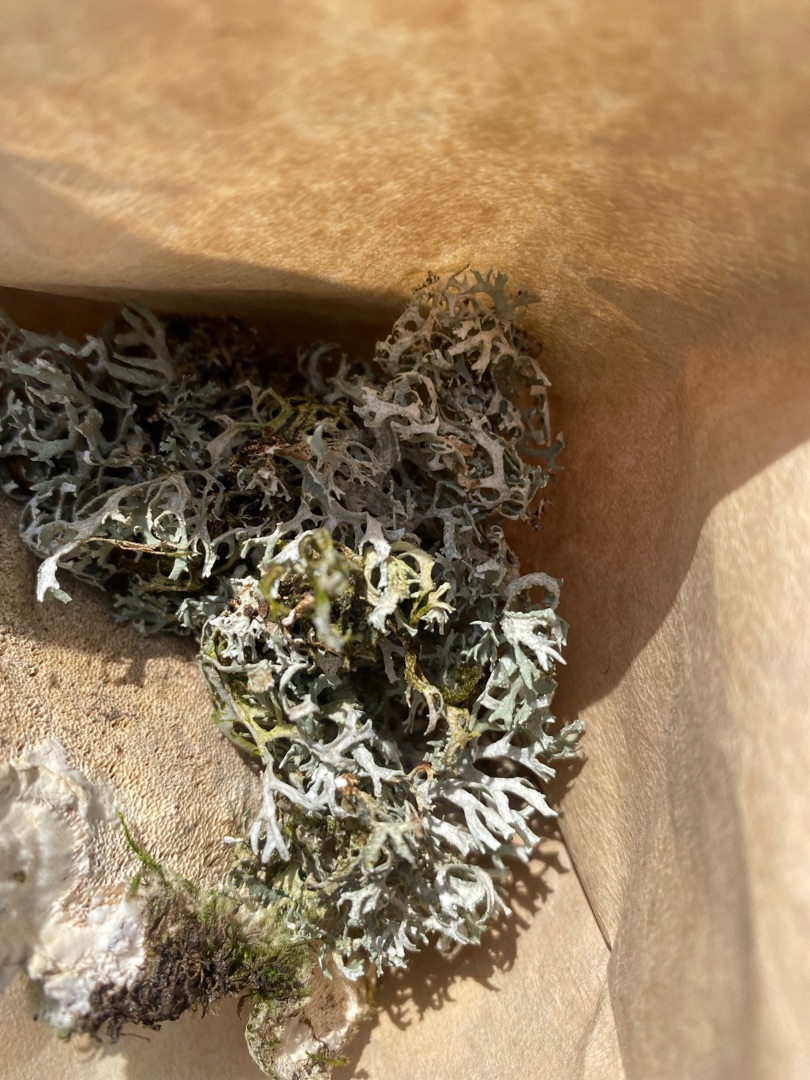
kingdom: Fungi
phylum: Ascomycota
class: Lecanoromycetes
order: Lecanorales
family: Parmeliaceae
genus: Evernia
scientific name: Evernia prunastri
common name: Almindelig slåenlav
